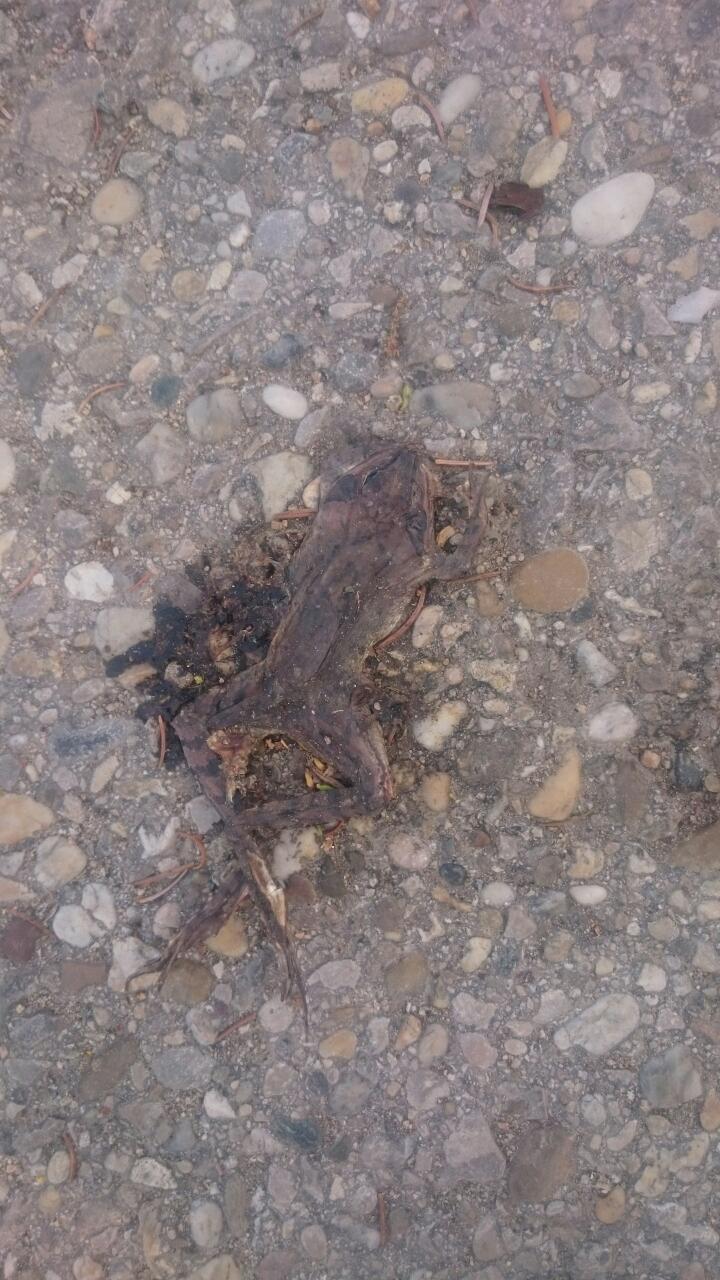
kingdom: Animalia
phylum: Chordata
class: Amphibia
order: Anura
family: Ranidae
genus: Rana
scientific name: Rana temporaria
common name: Common frog
